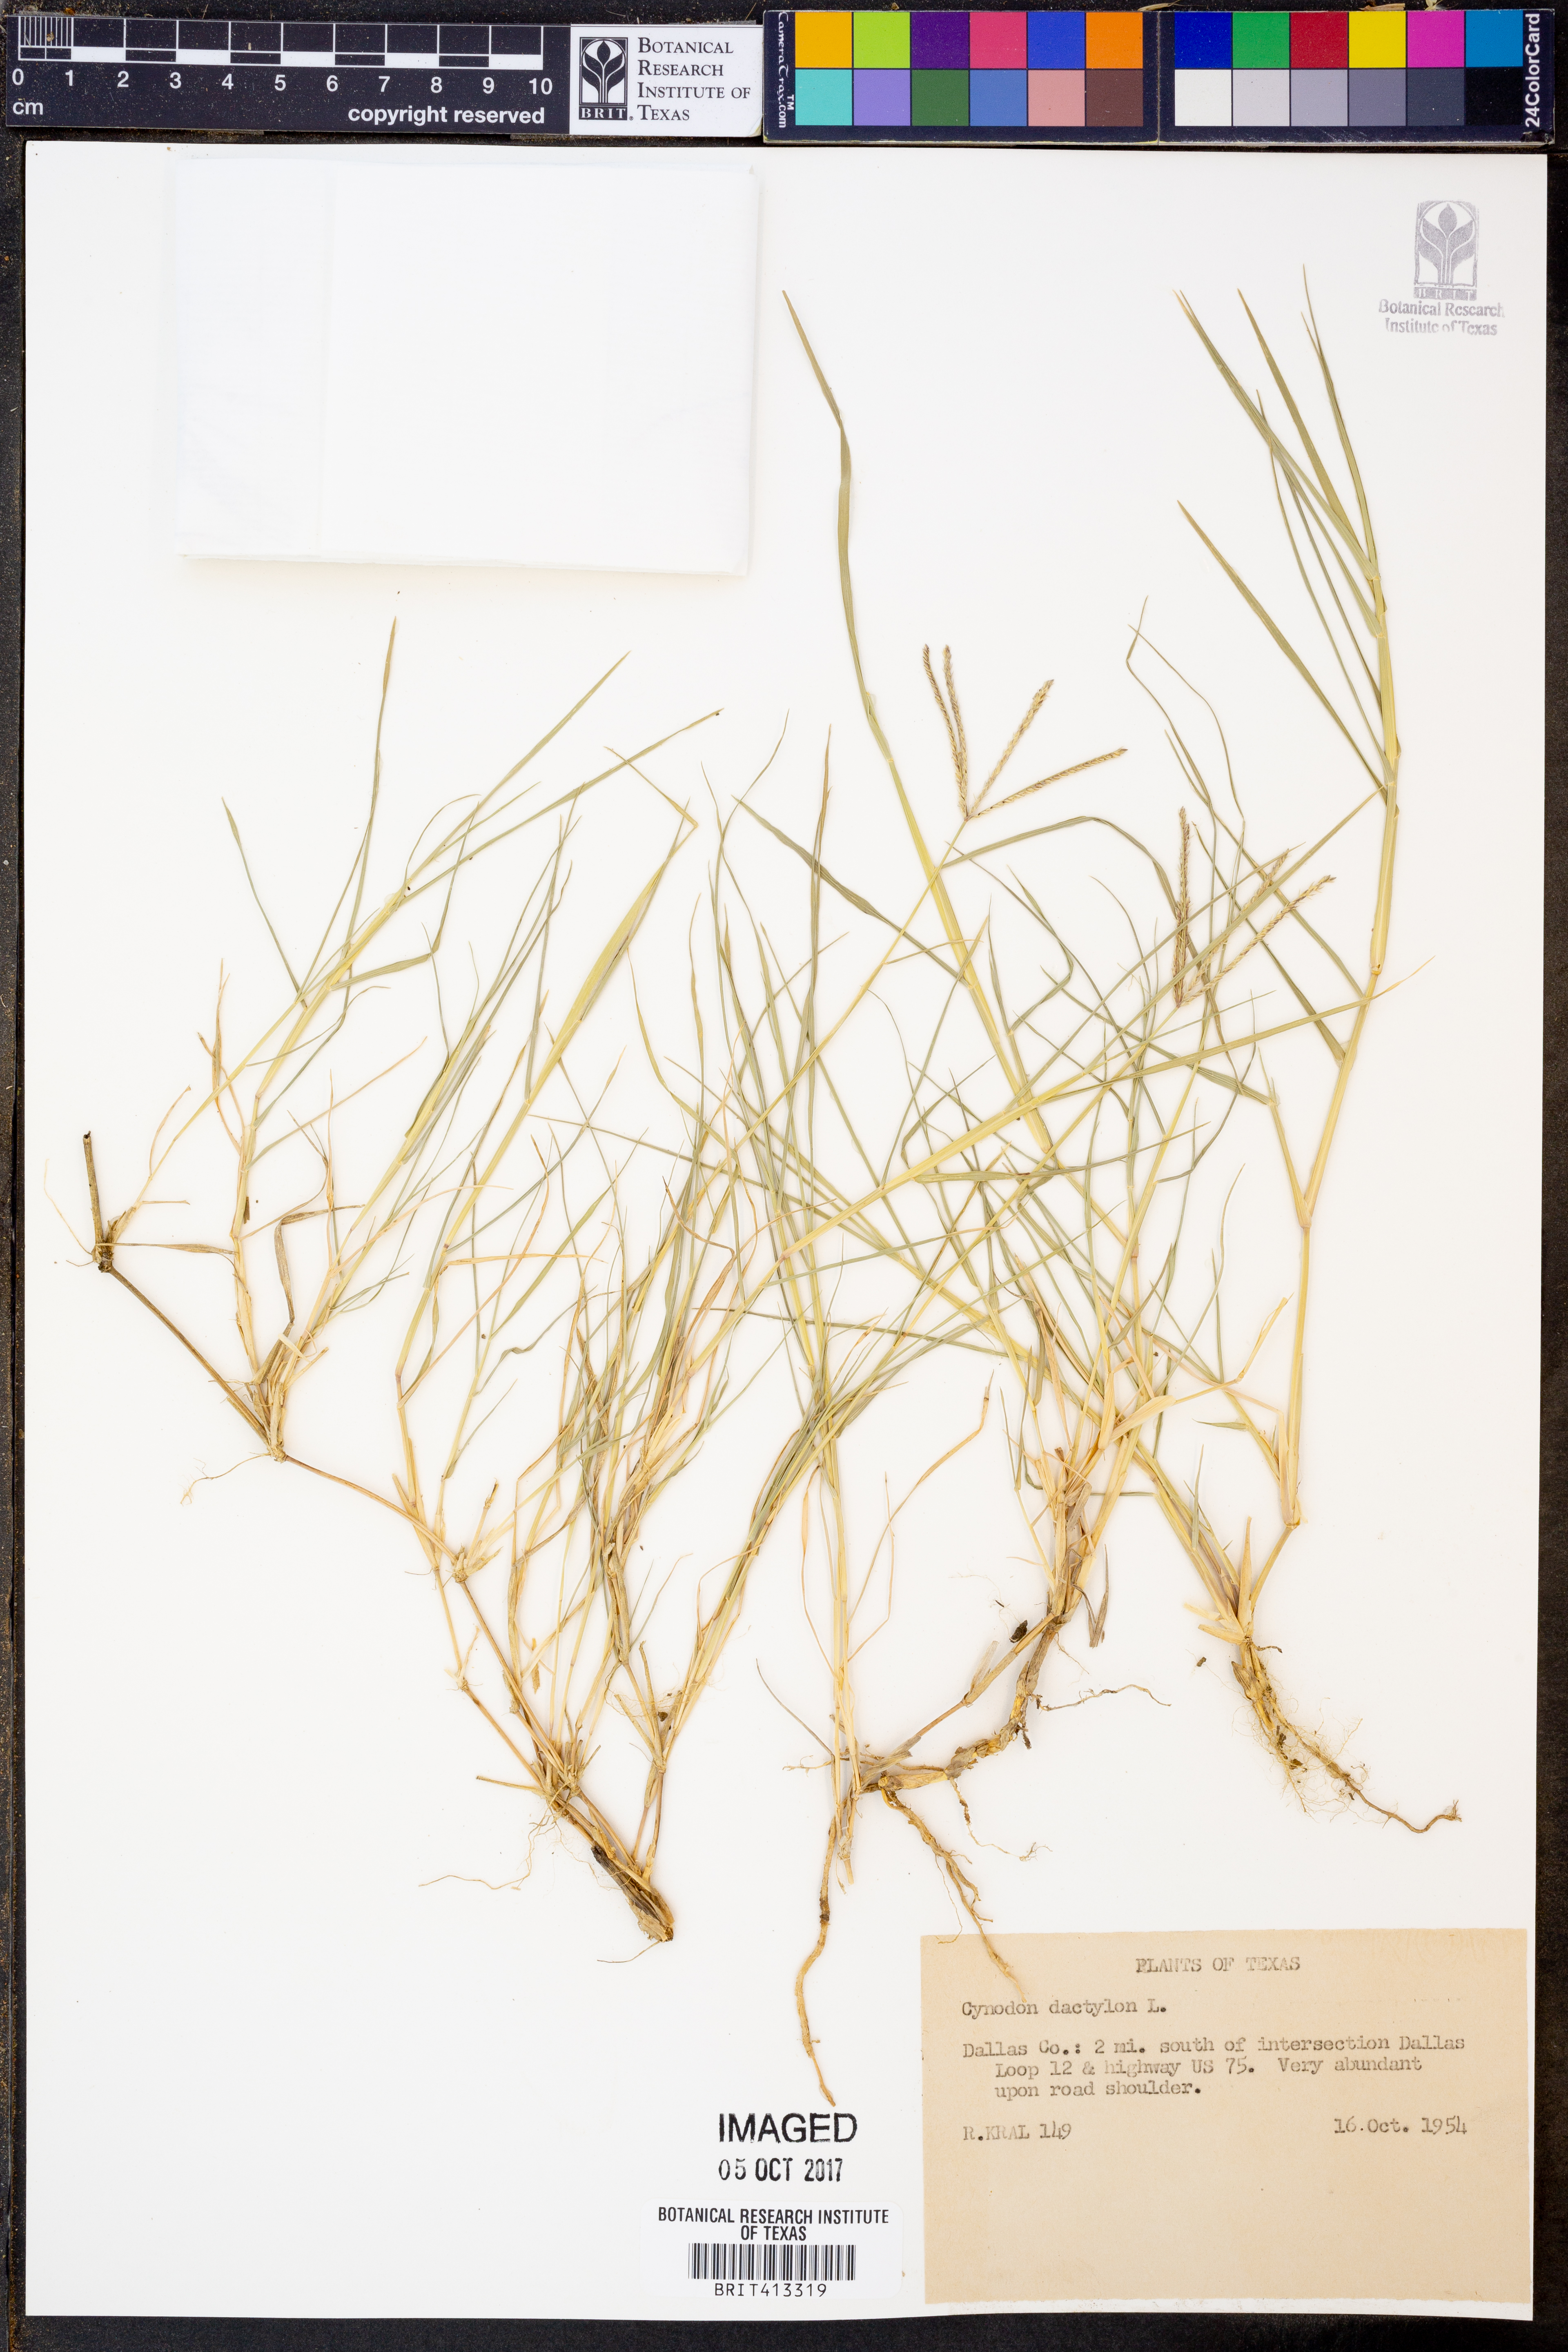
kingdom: Plantae
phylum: Tracheophyta
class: Liliopsida
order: Poales
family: Poaceae
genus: Cynodon
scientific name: Cynodon dactylon
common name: Bermuda grass
